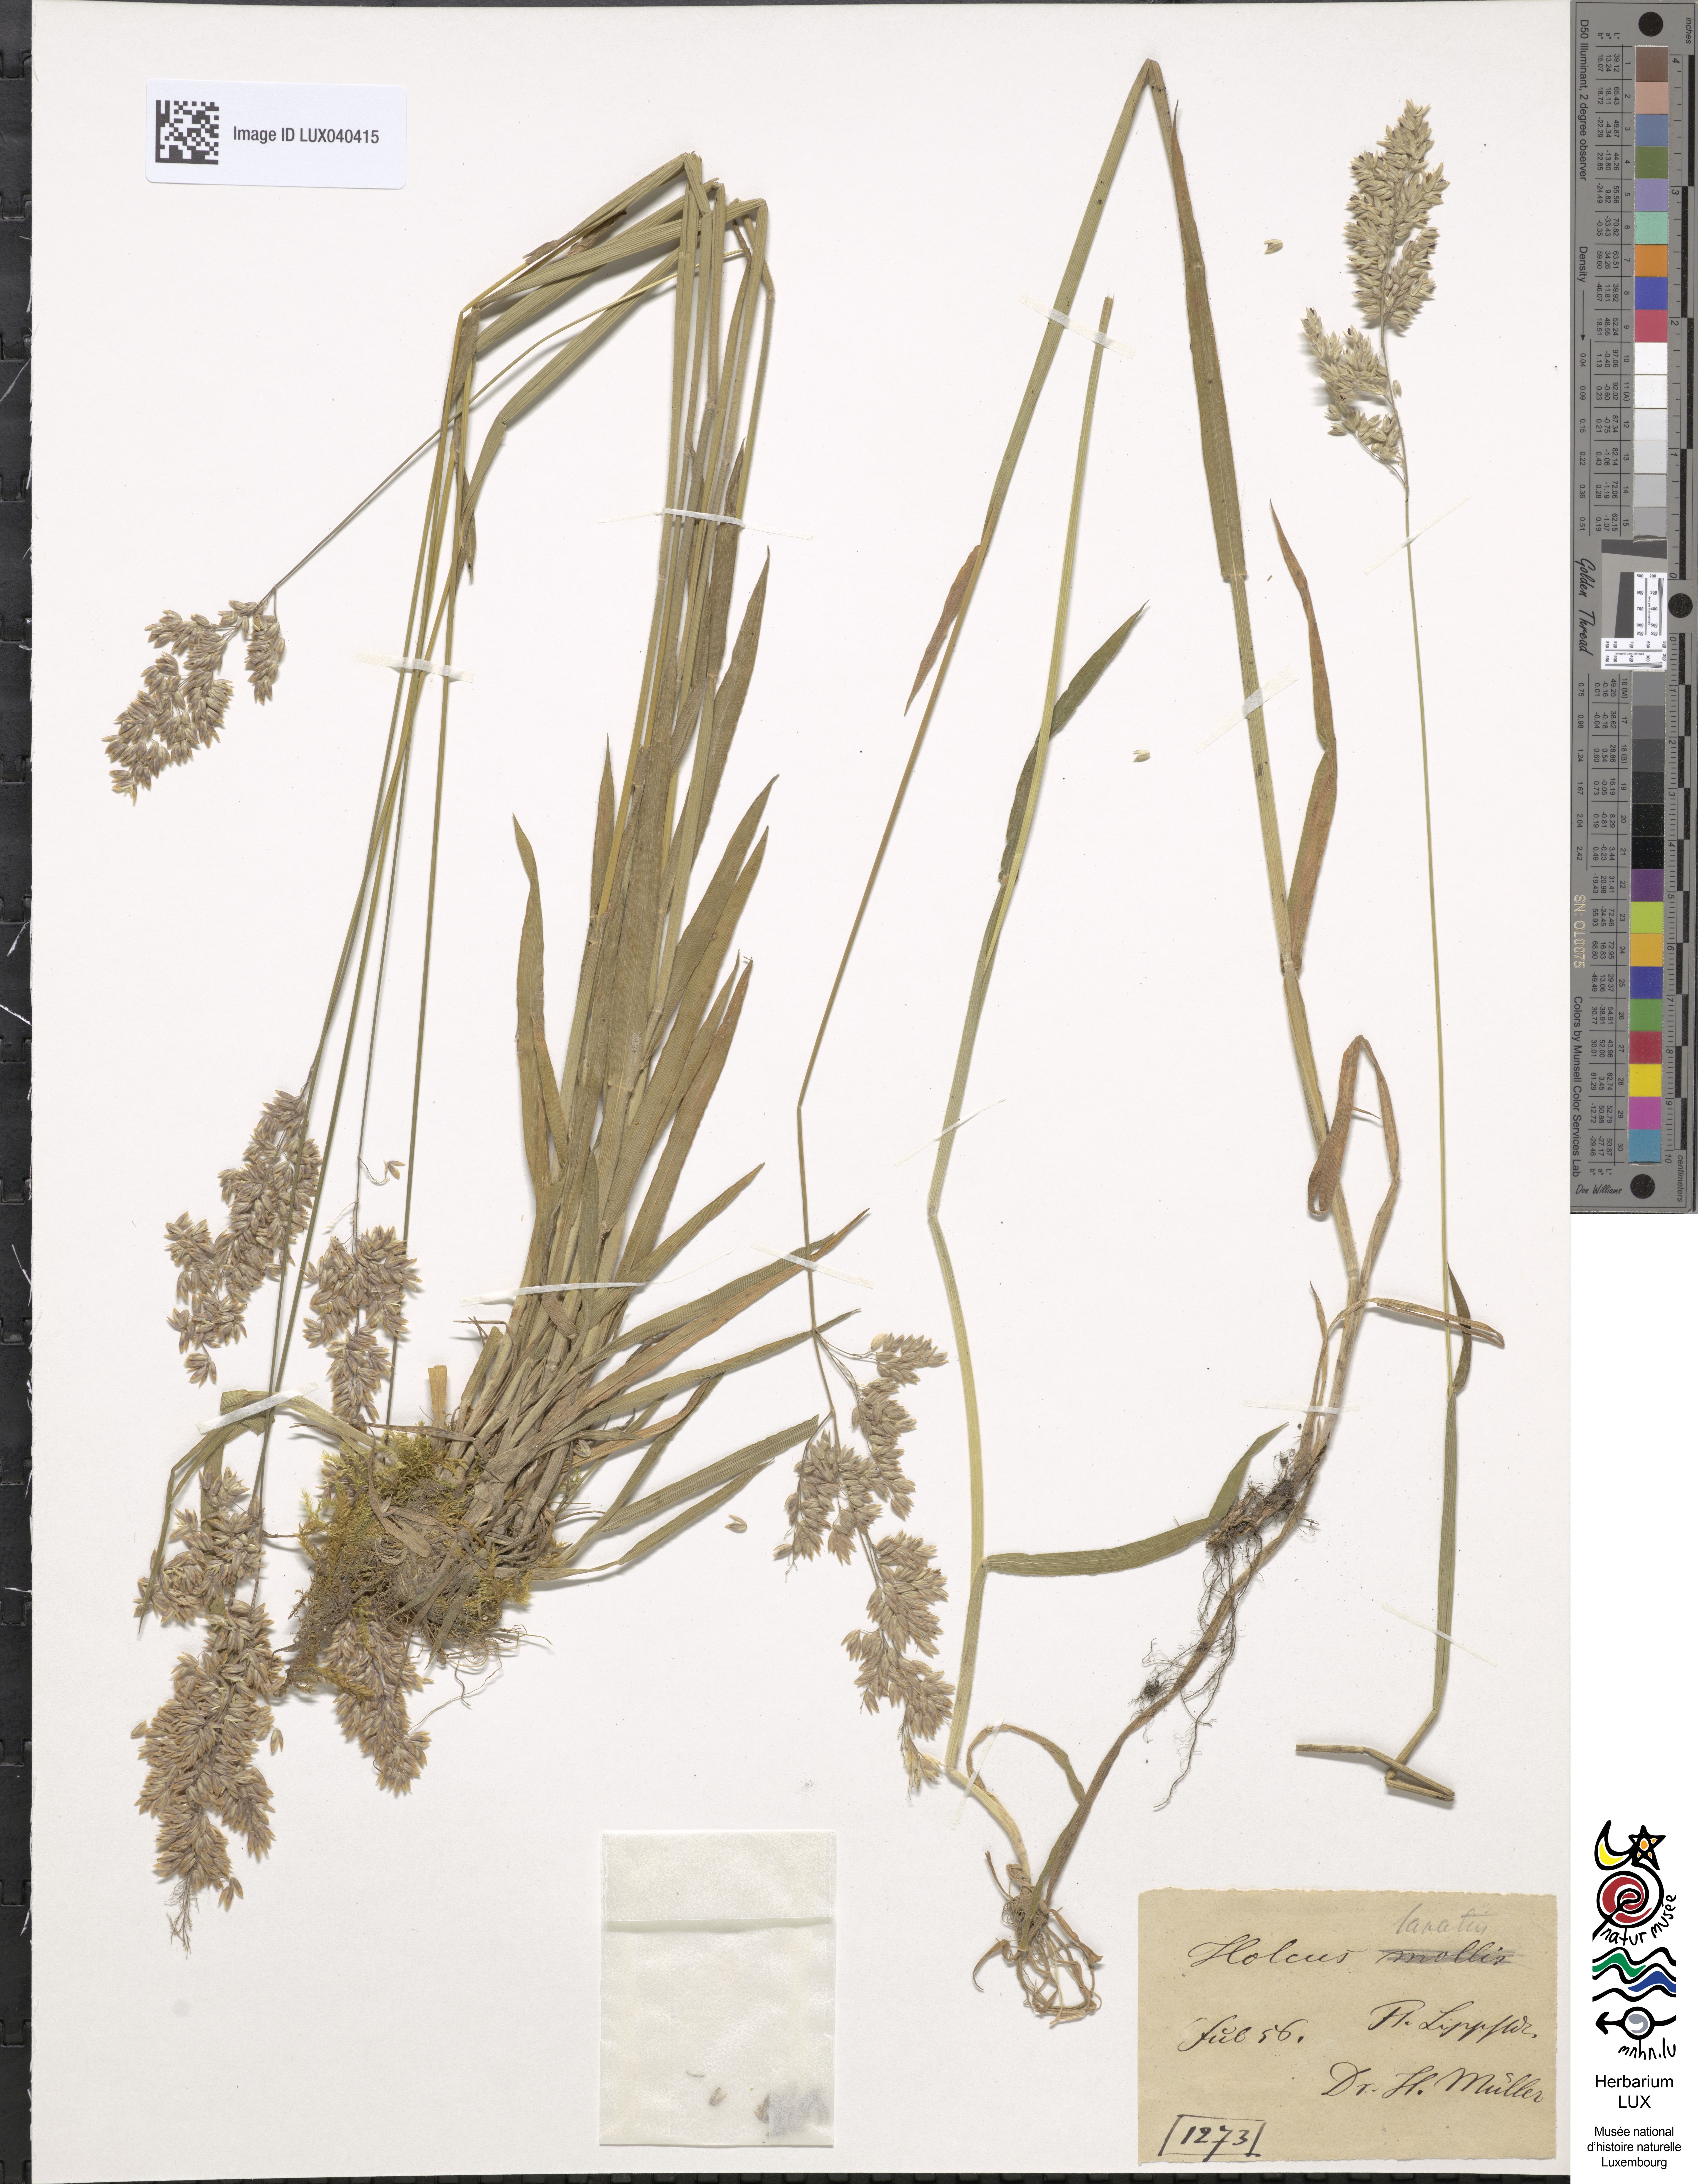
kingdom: Plantae
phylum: Tracheophyta
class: Liliopsida
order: Poales
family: Poaceae
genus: Holcus
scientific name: Holcus lanatus
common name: Yorkshire-fog
